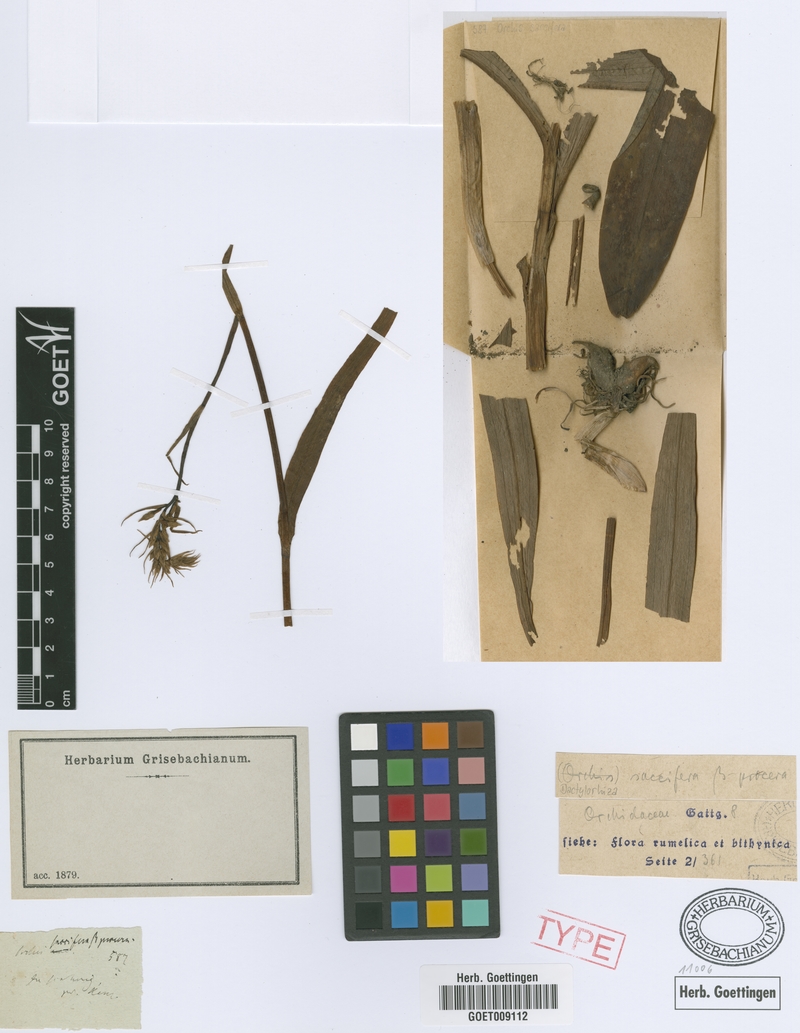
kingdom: Plantae
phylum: Tracheophyta
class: Liliopsida
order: Asparagales
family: Orchidaceae
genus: Dactylorhiza
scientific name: Dactylorhiza maculata
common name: Heath spotted-orchid
